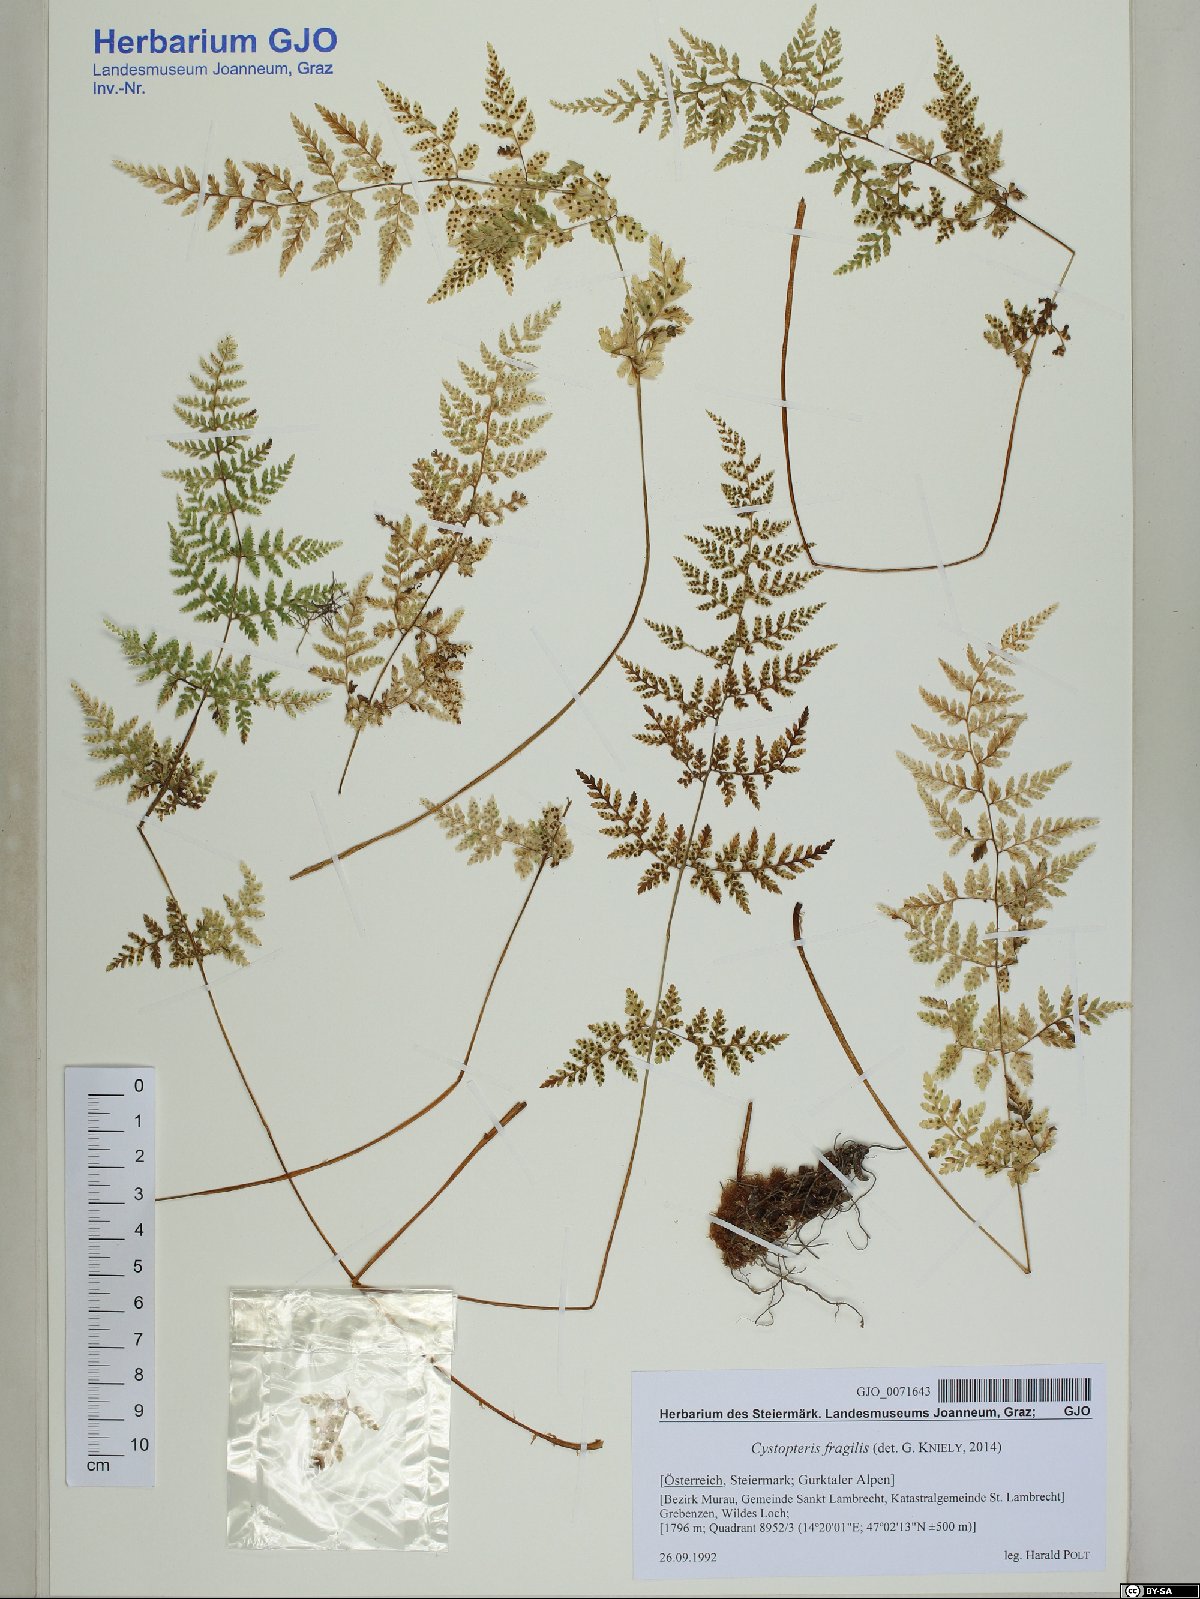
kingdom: Plantae
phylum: Tracheophyta
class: Polypodiopsida
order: Polypodiales
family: Cystopteridaceae
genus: Cystopteris
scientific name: Cystopteris fragilis
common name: Brittle bladder fern
